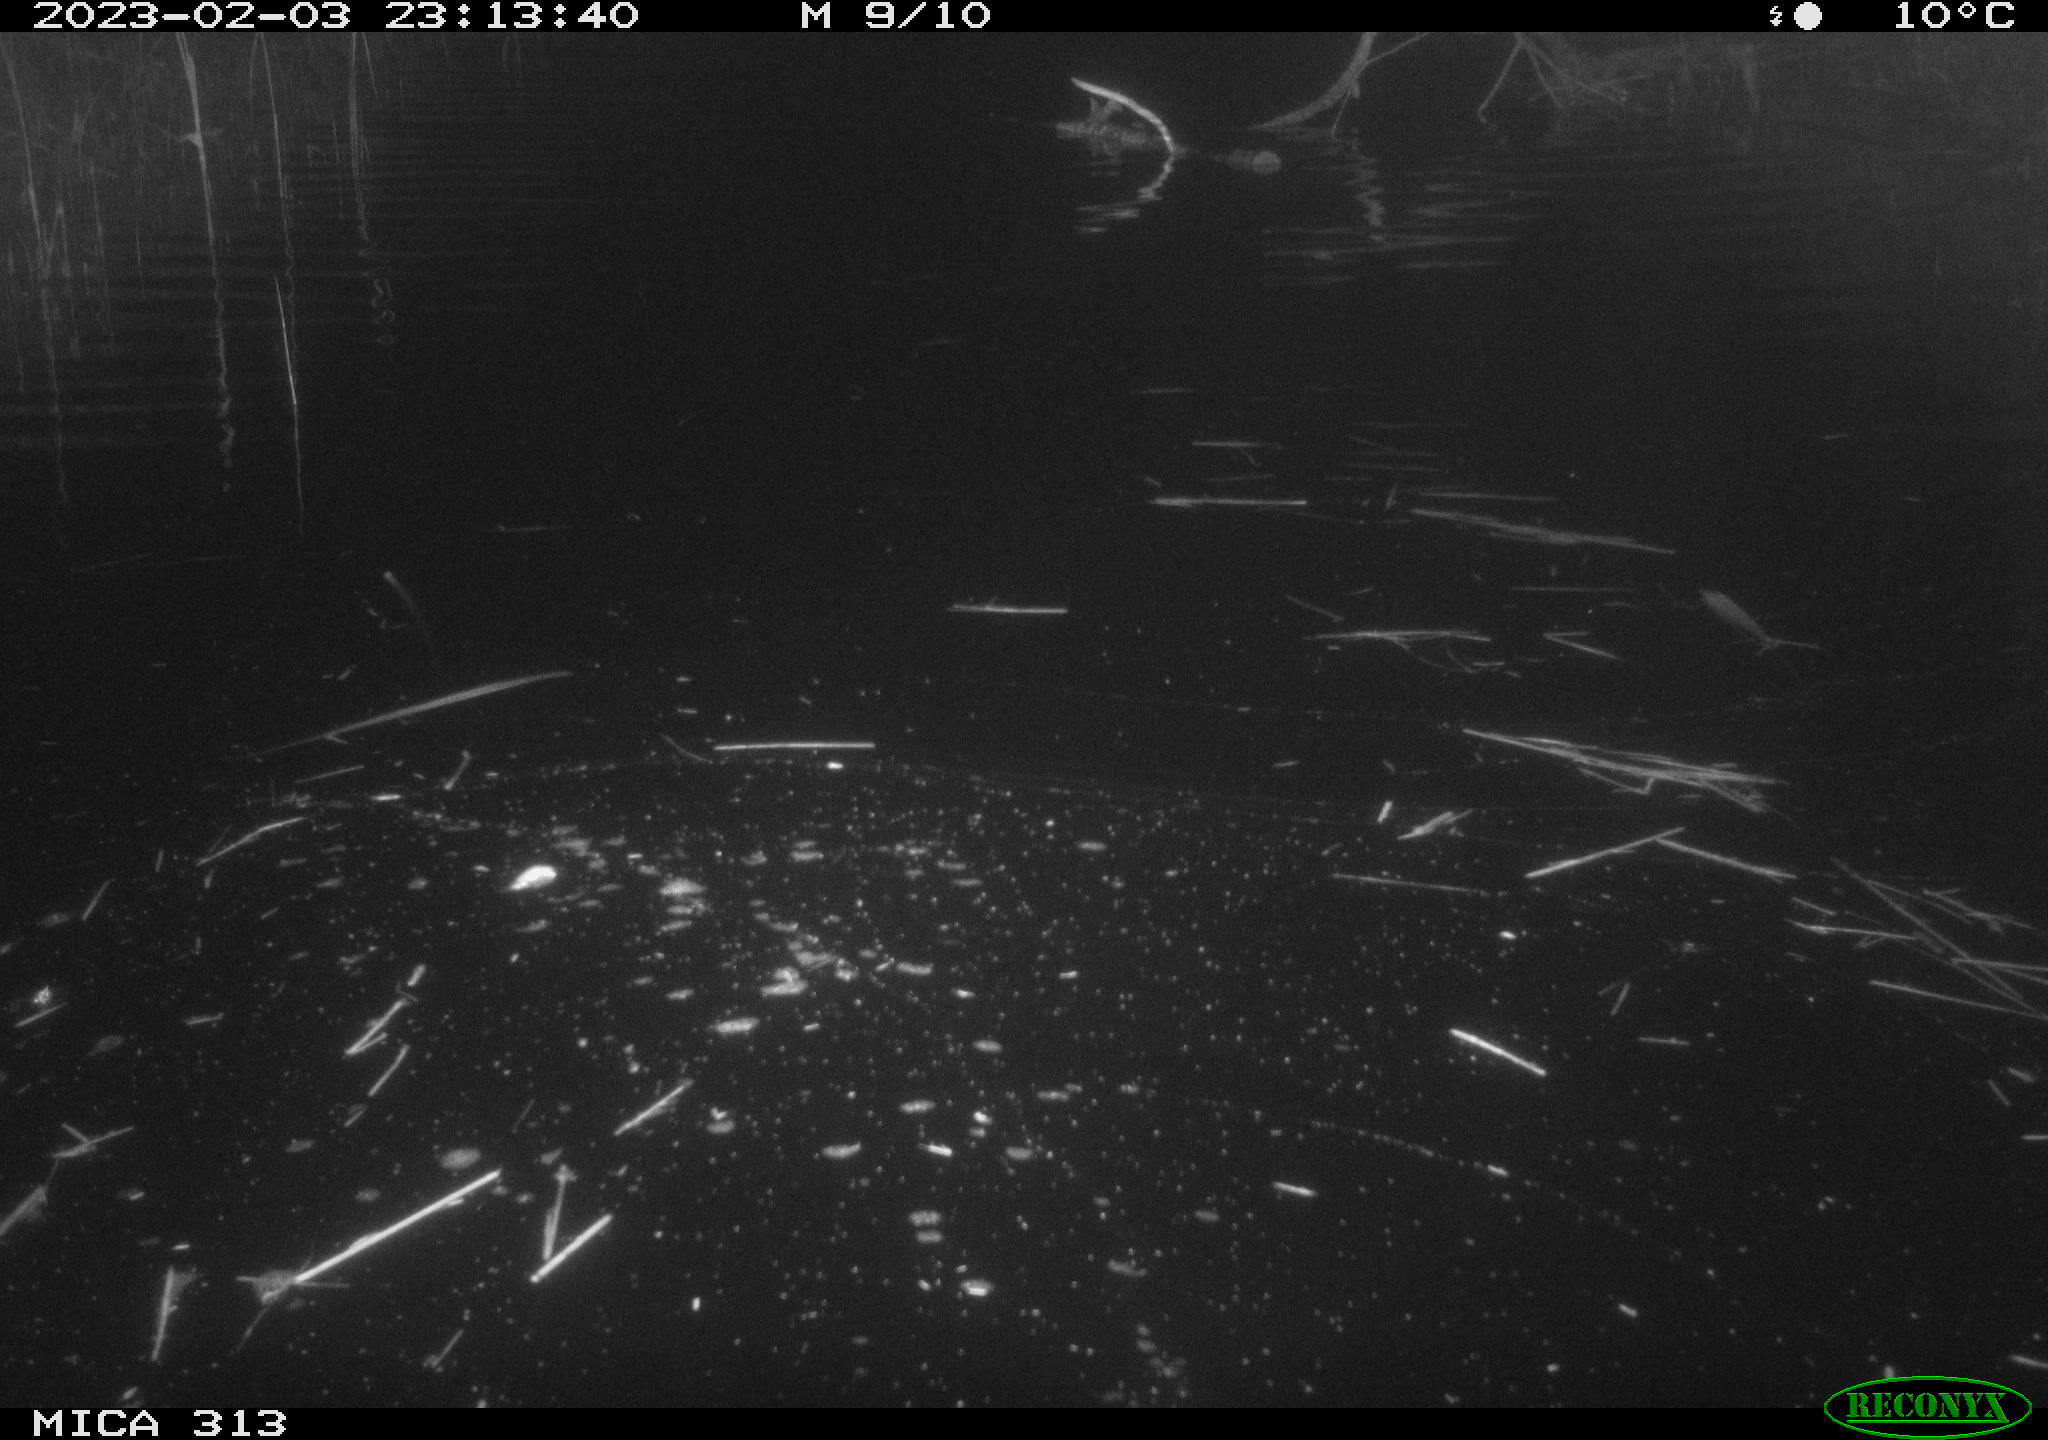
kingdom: Animalia
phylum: Chordata
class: Aves
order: Gruiformes
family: Rallidae
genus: Gallinula
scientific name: Gallinula chloropus
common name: Common moorhen
